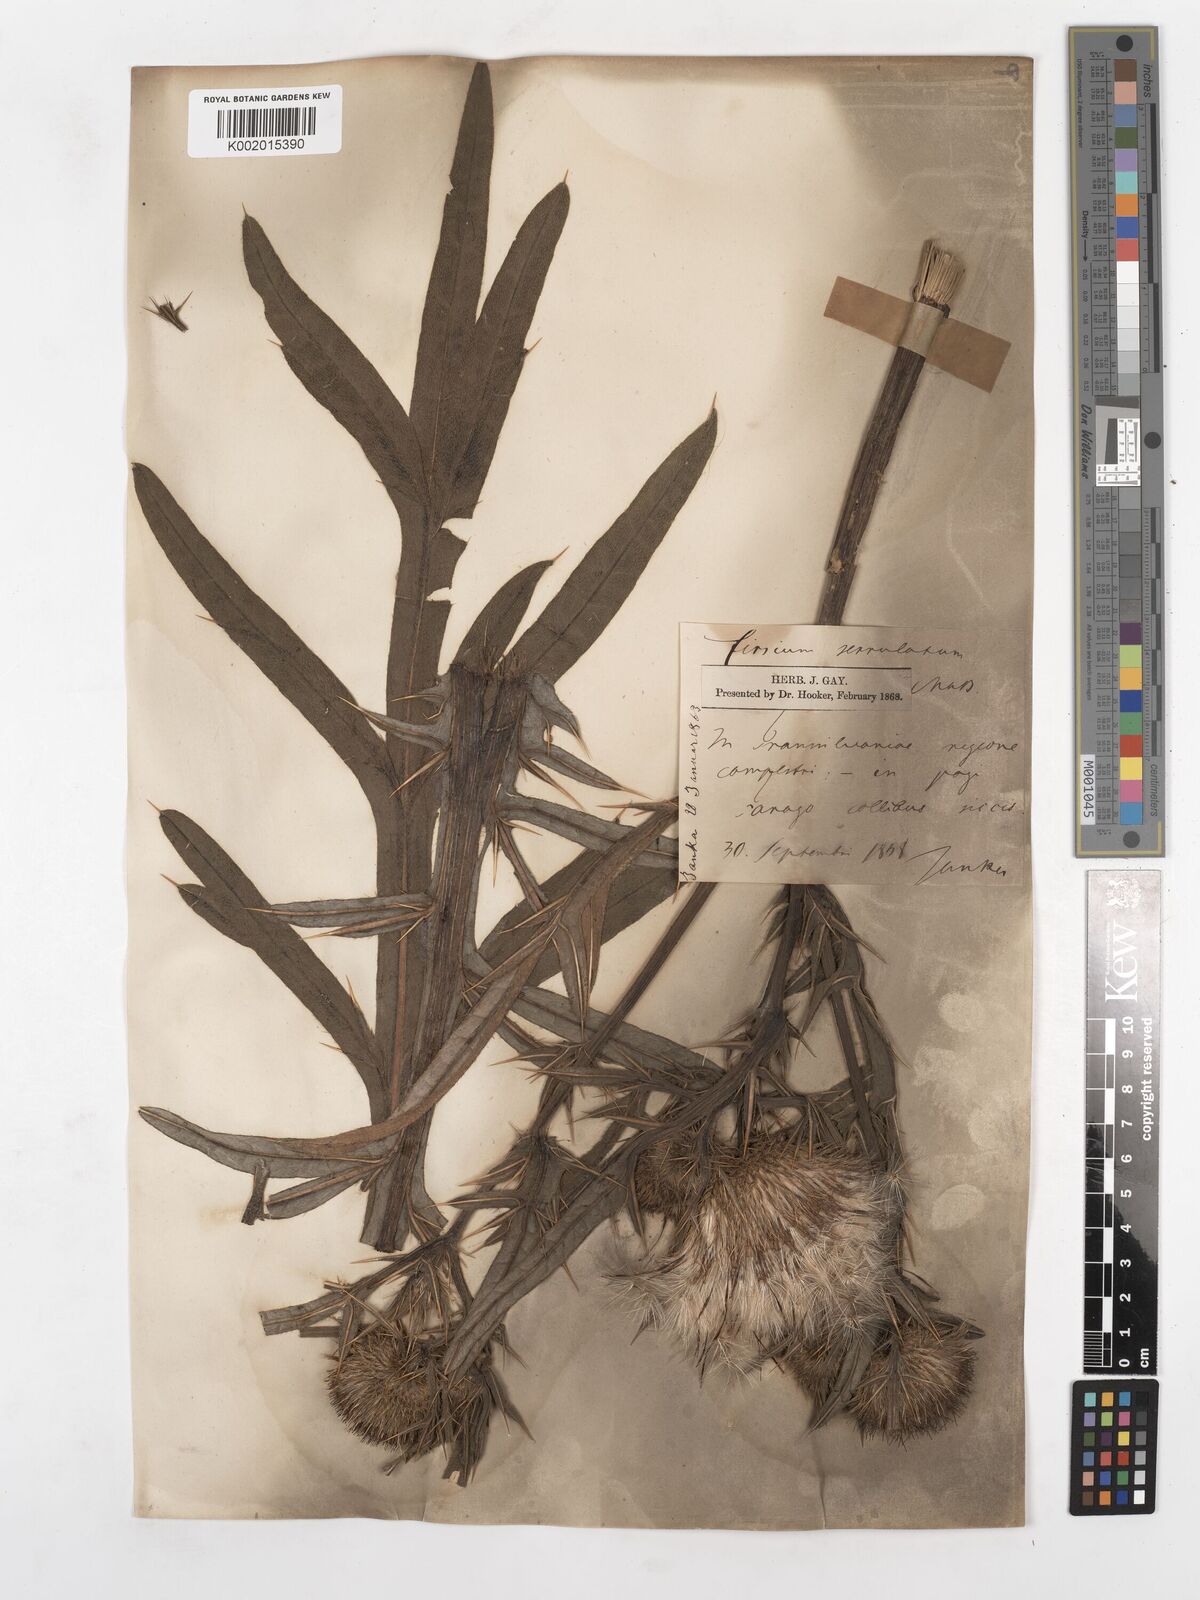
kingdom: Plantae
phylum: Tracheophyta
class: Magnoliopsida
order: Asterales
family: Asteraceae
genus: Lophiolepis
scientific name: Lophiolepis furiens
